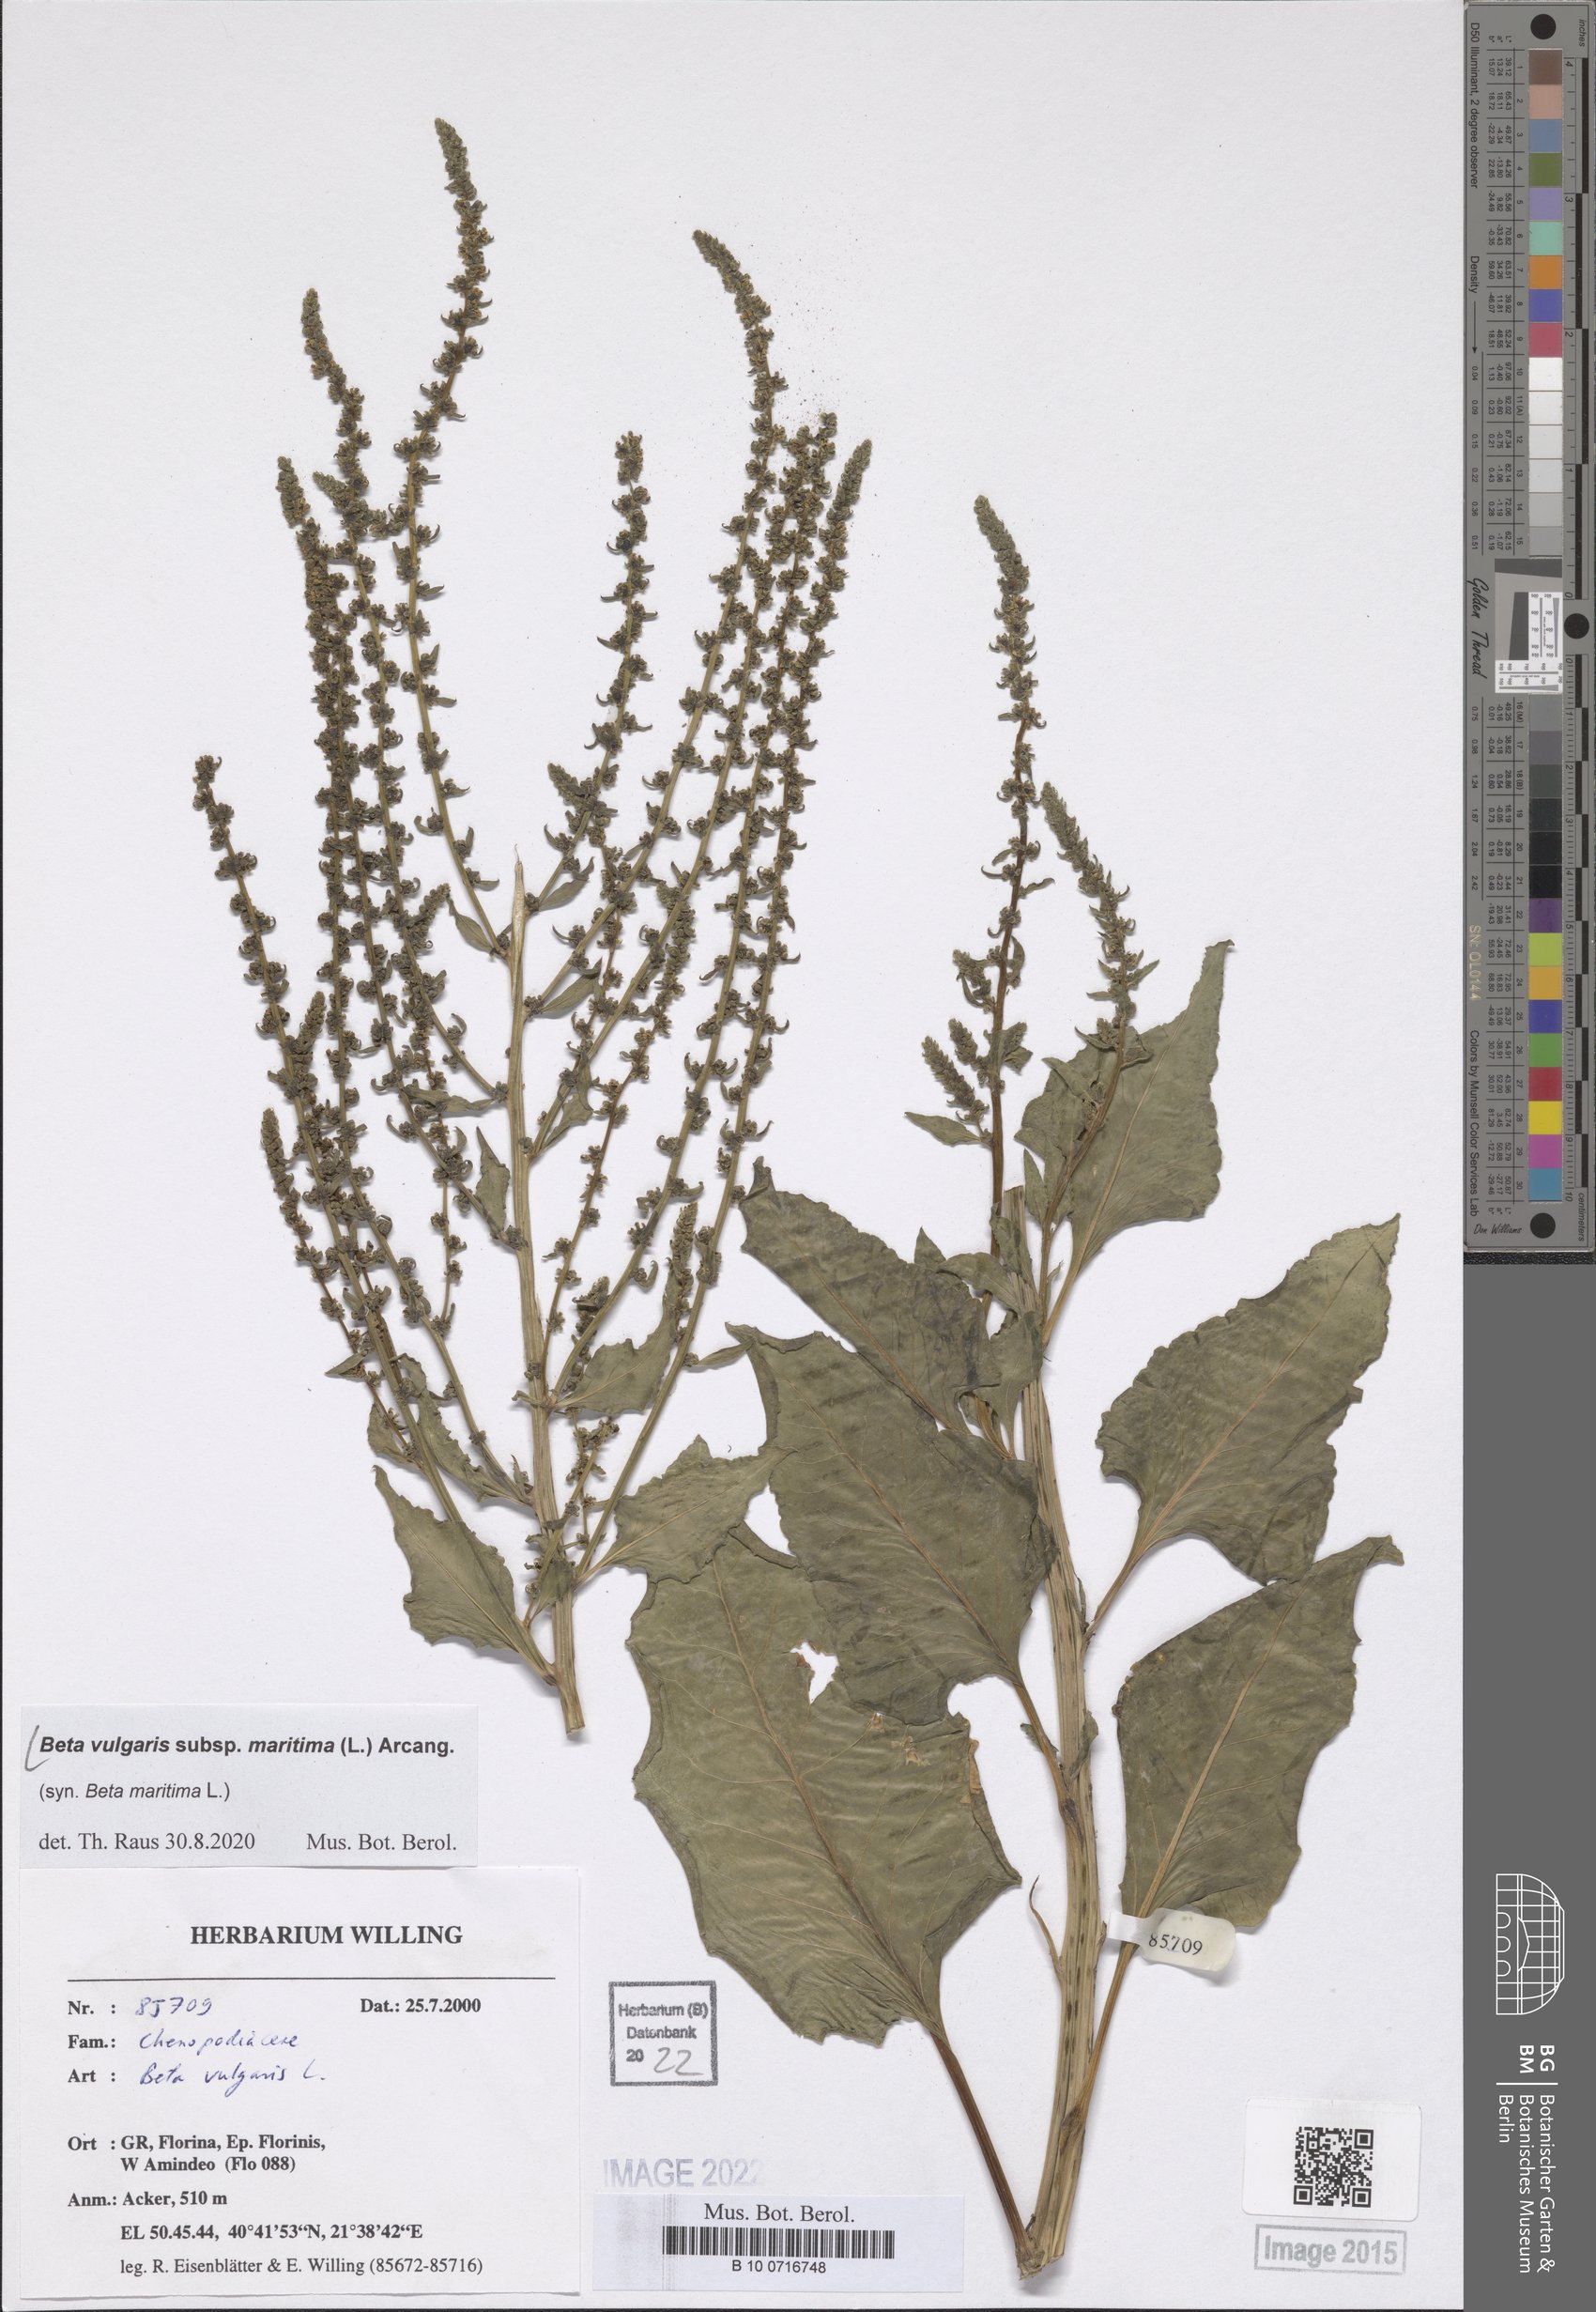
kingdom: Plantae
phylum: Tracheophyta
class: Magnoliopsida
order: Caryophyllales
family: Amaranthaceae
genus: Beta
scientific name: Beta maritima
